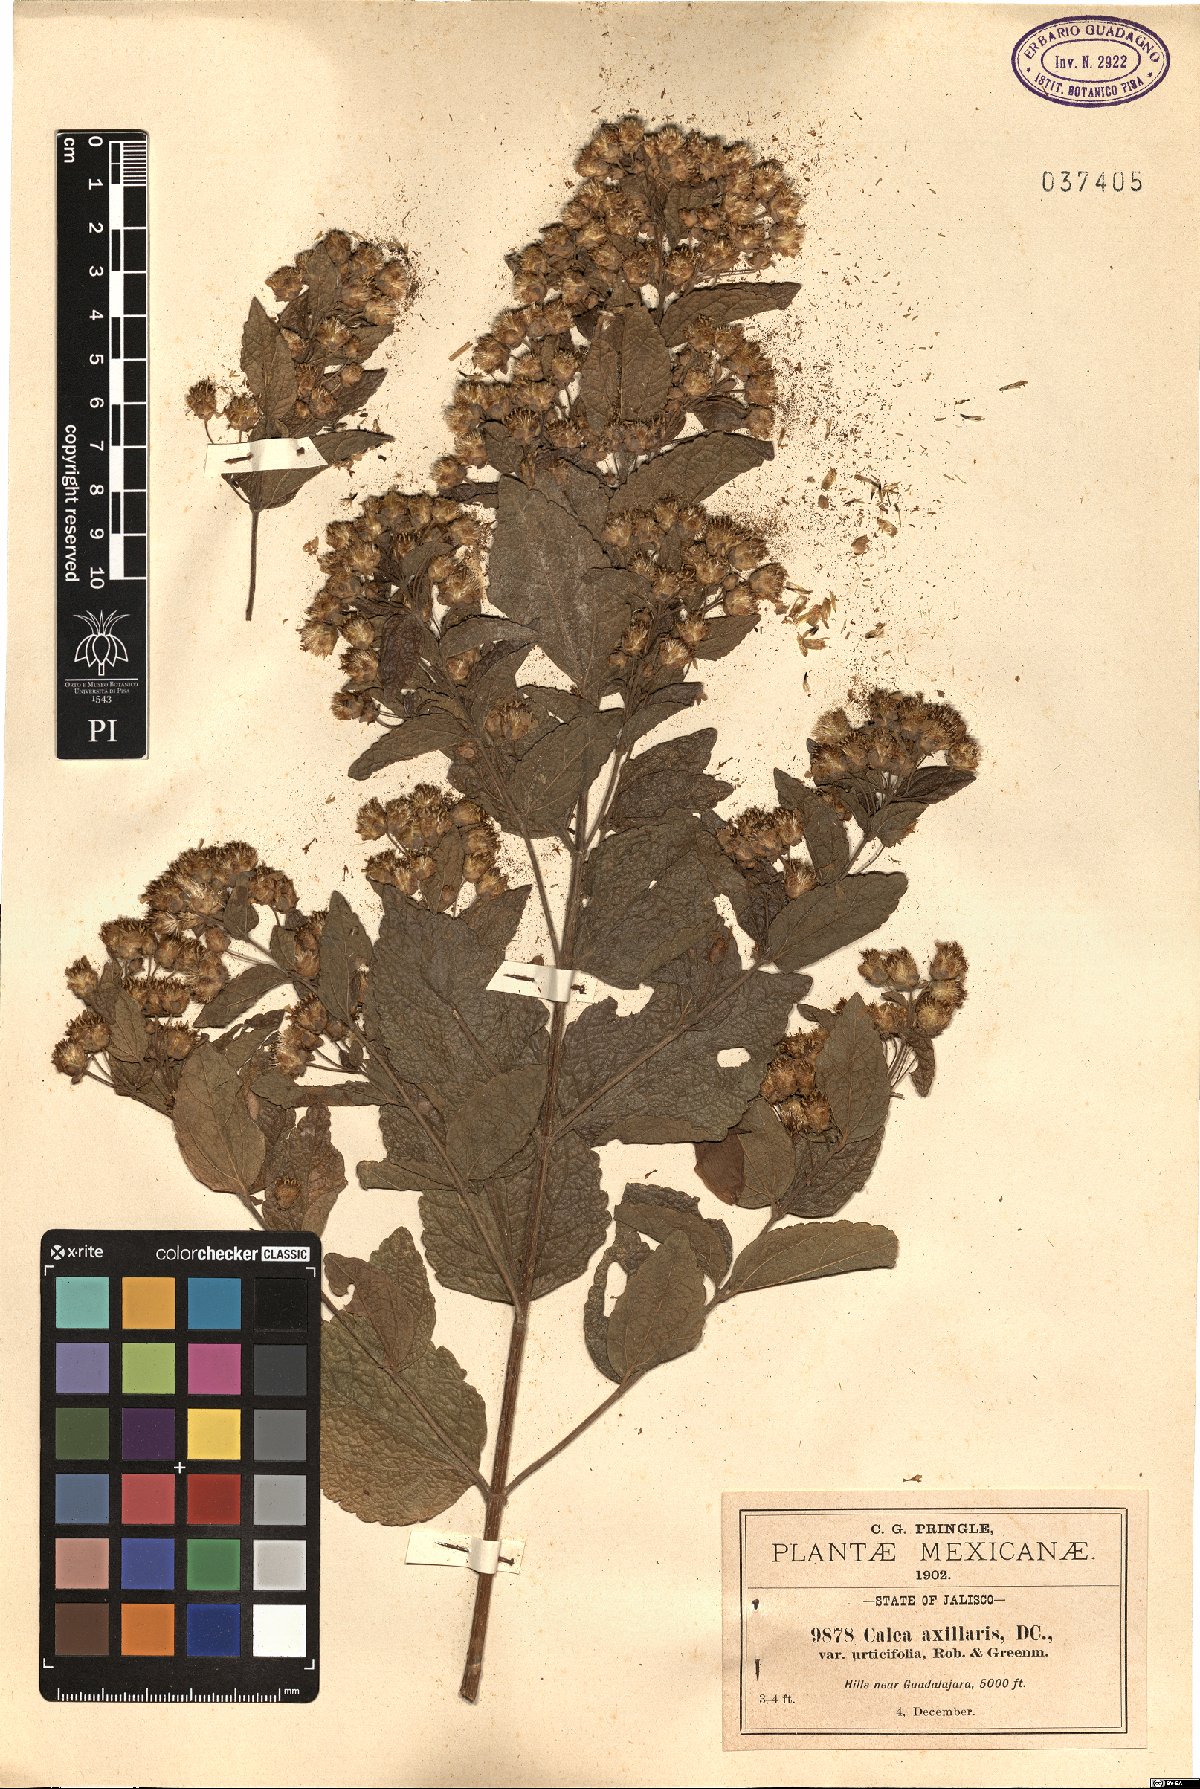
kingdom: Plantae
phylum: Tracheophyta
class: Magnoliopsida
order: Asterales
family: Asteraceae
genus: Calea
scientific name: Calea urticifolia
